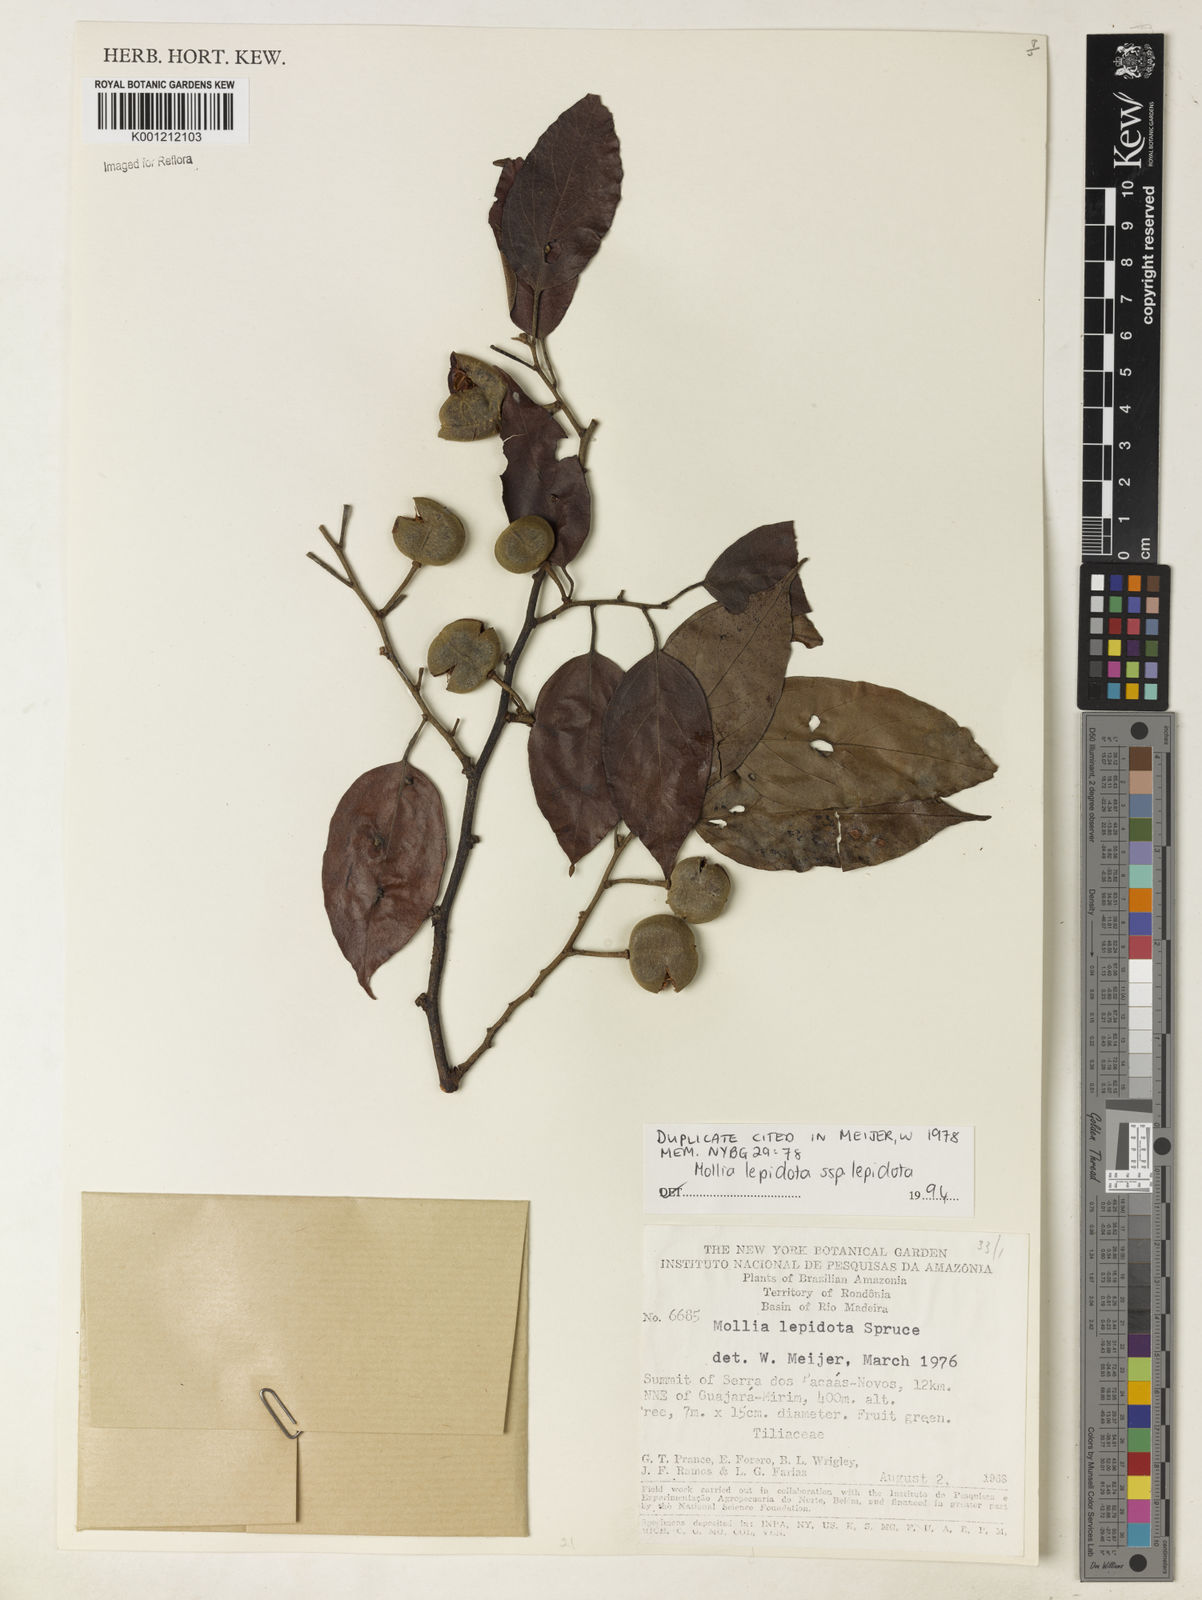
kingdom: Plantae
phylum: Tracheophyta
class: Magnoliopsida
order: Malvales
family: Malvaceae
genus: Mollia
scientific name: Mollia burchellii
